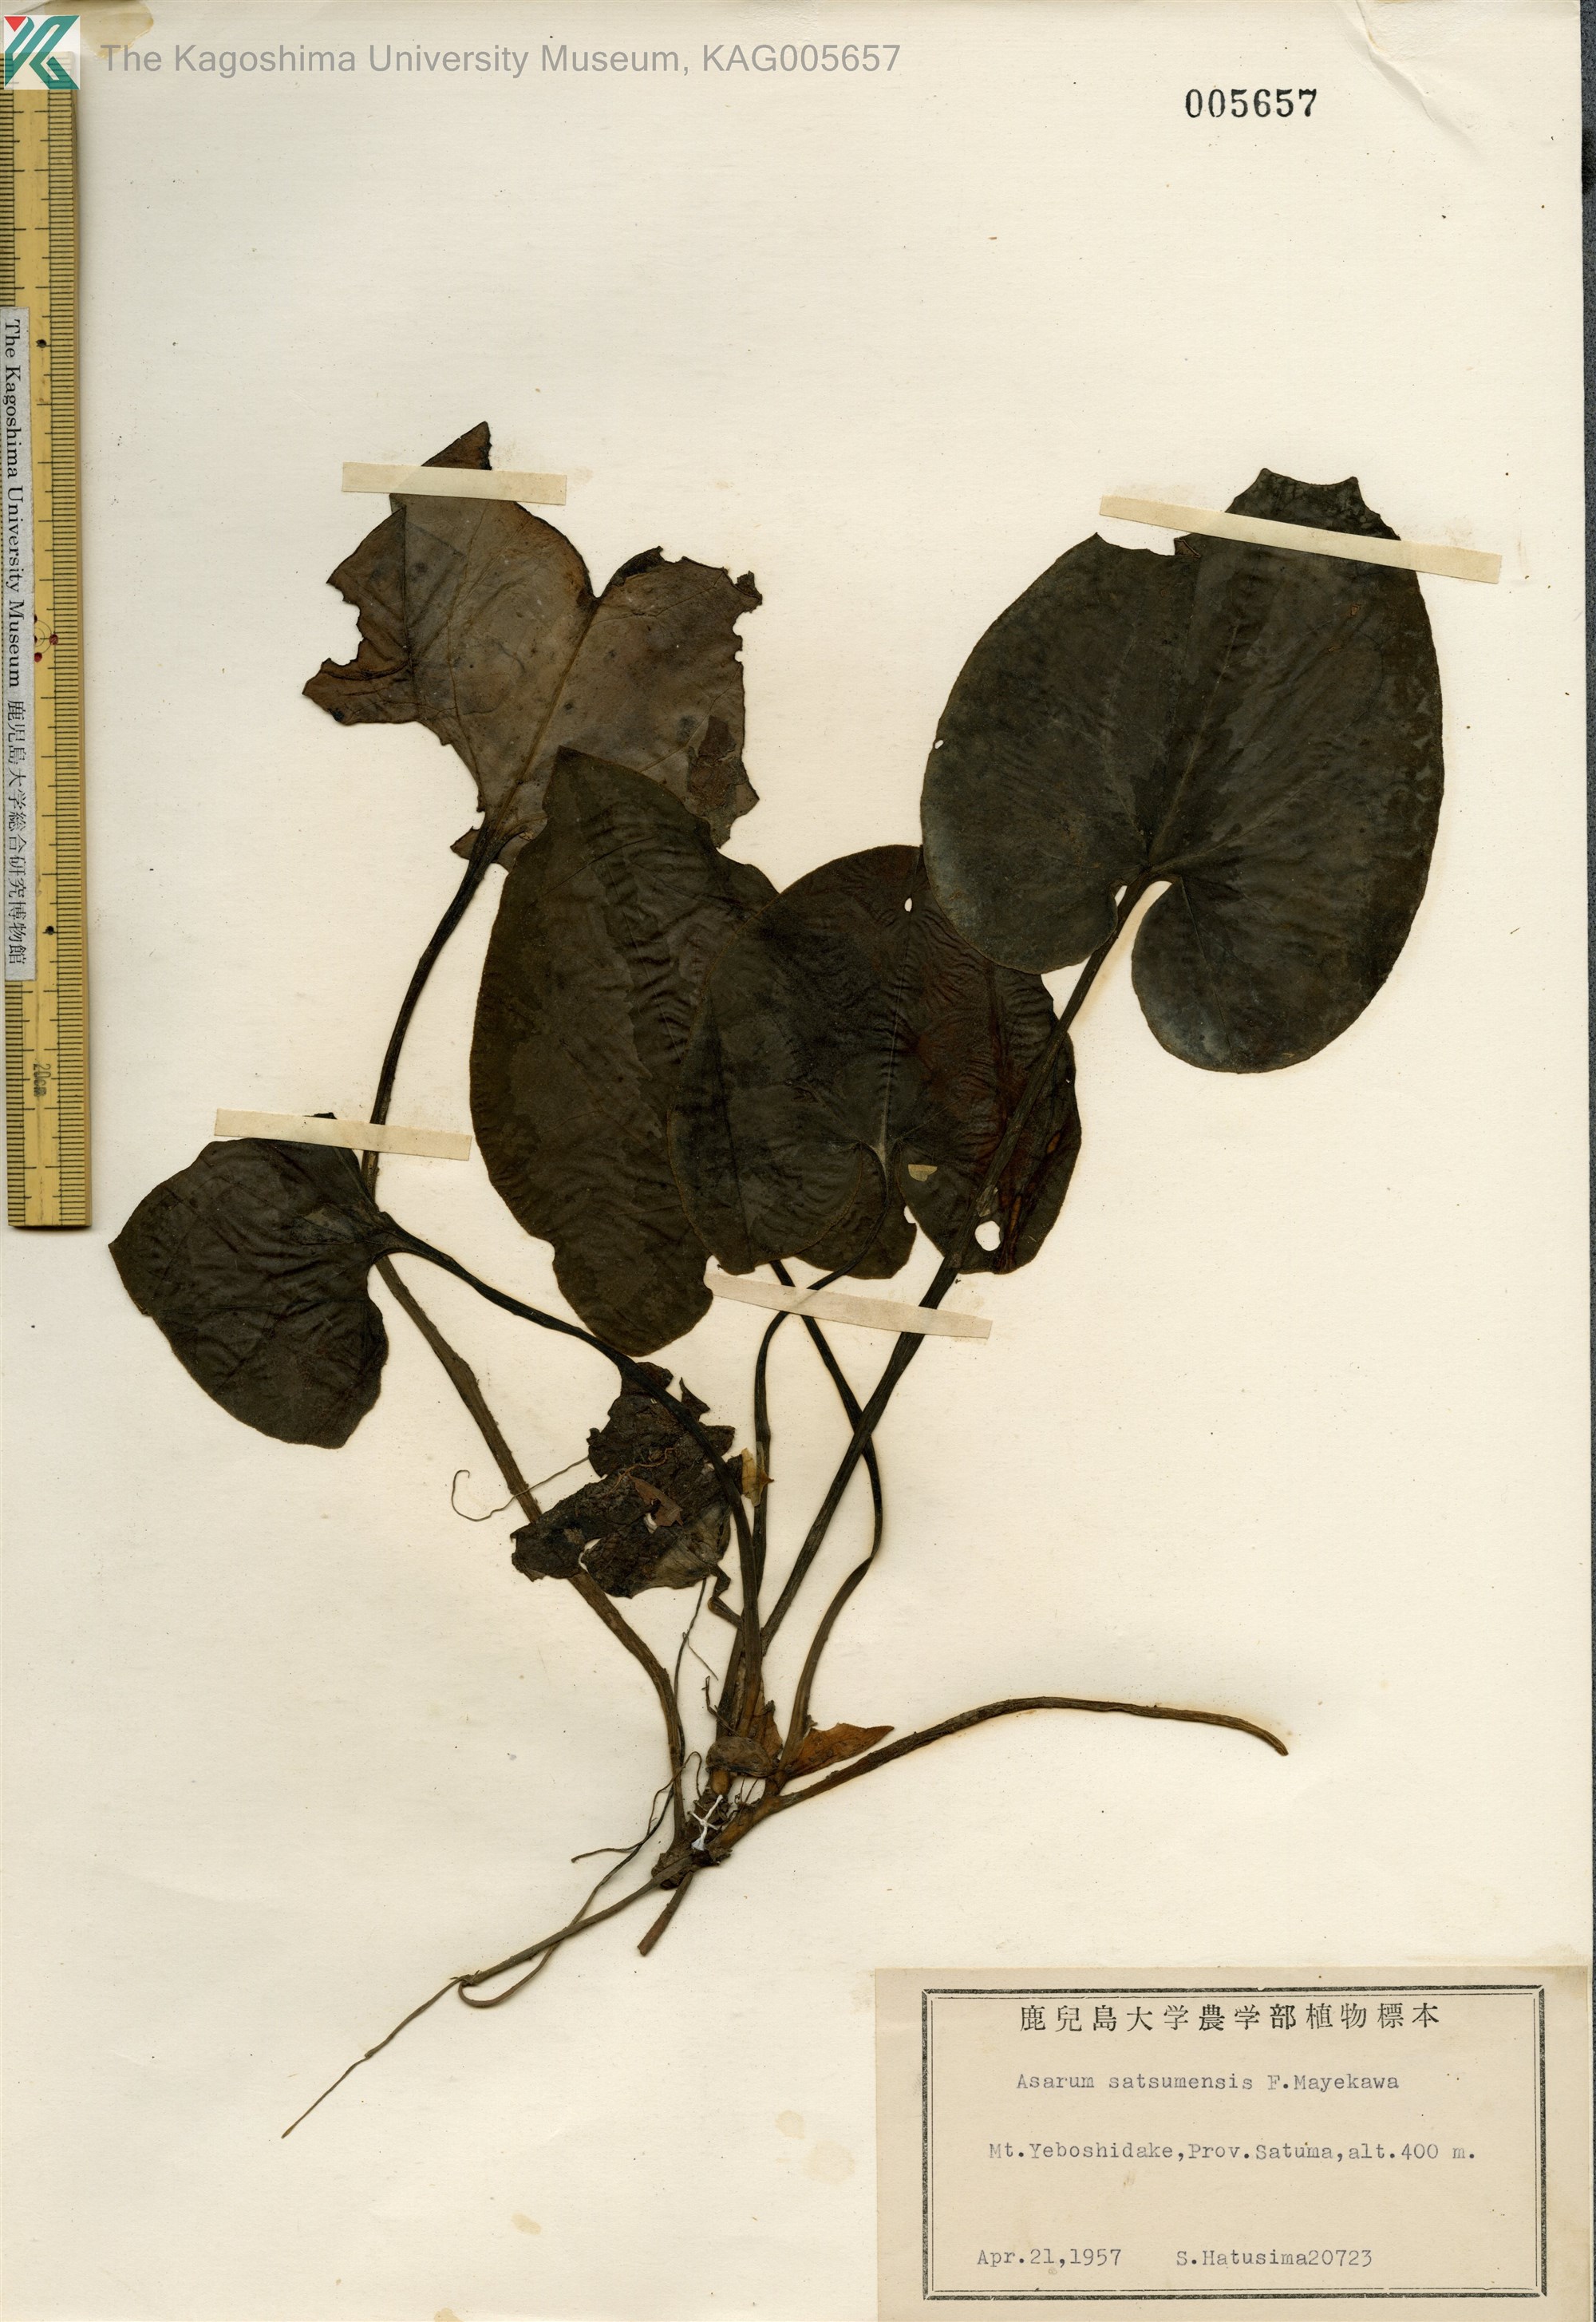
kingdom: Plantae
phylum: Tracheophyta
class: Magnoliopsida
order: Piperales
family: Aristolochiaceae
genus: Asarum
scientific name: Asarum satsumense
